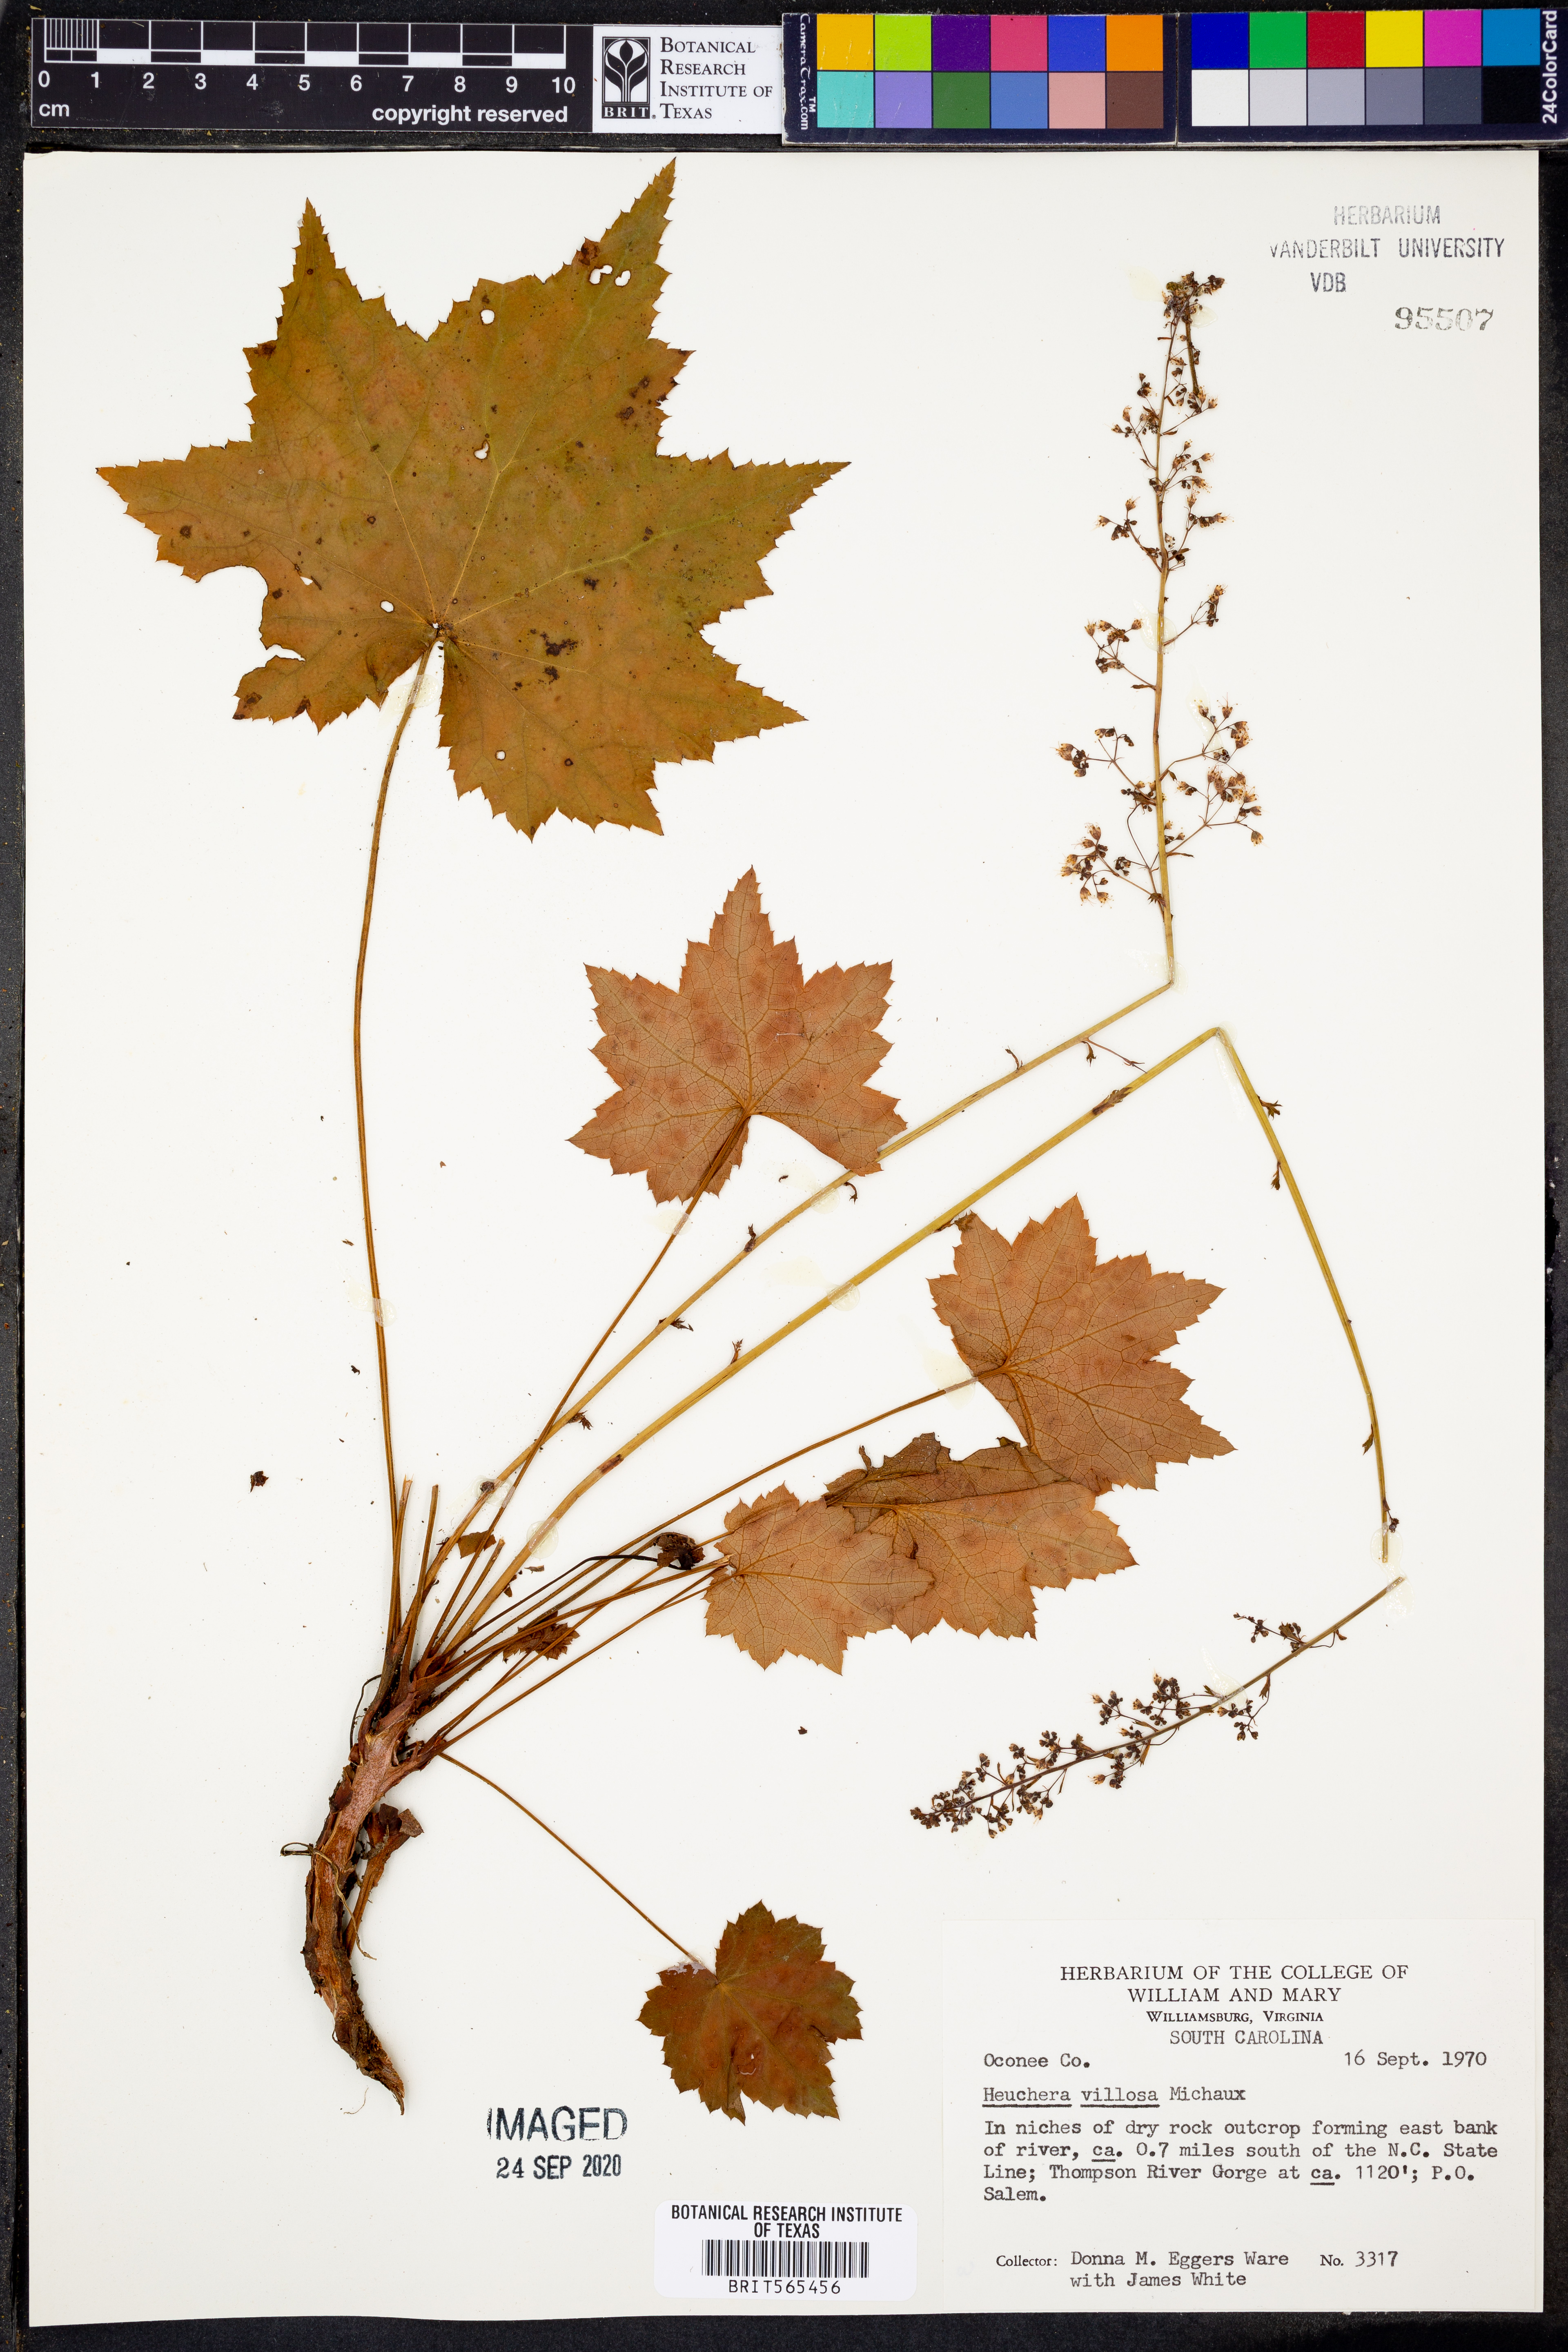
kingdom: Plantae
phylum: Tracheophyta
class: Magnoliopsida
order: Saxifragales
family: Saxifragaceae
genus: Heuchera
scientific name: Heuchera villosa
